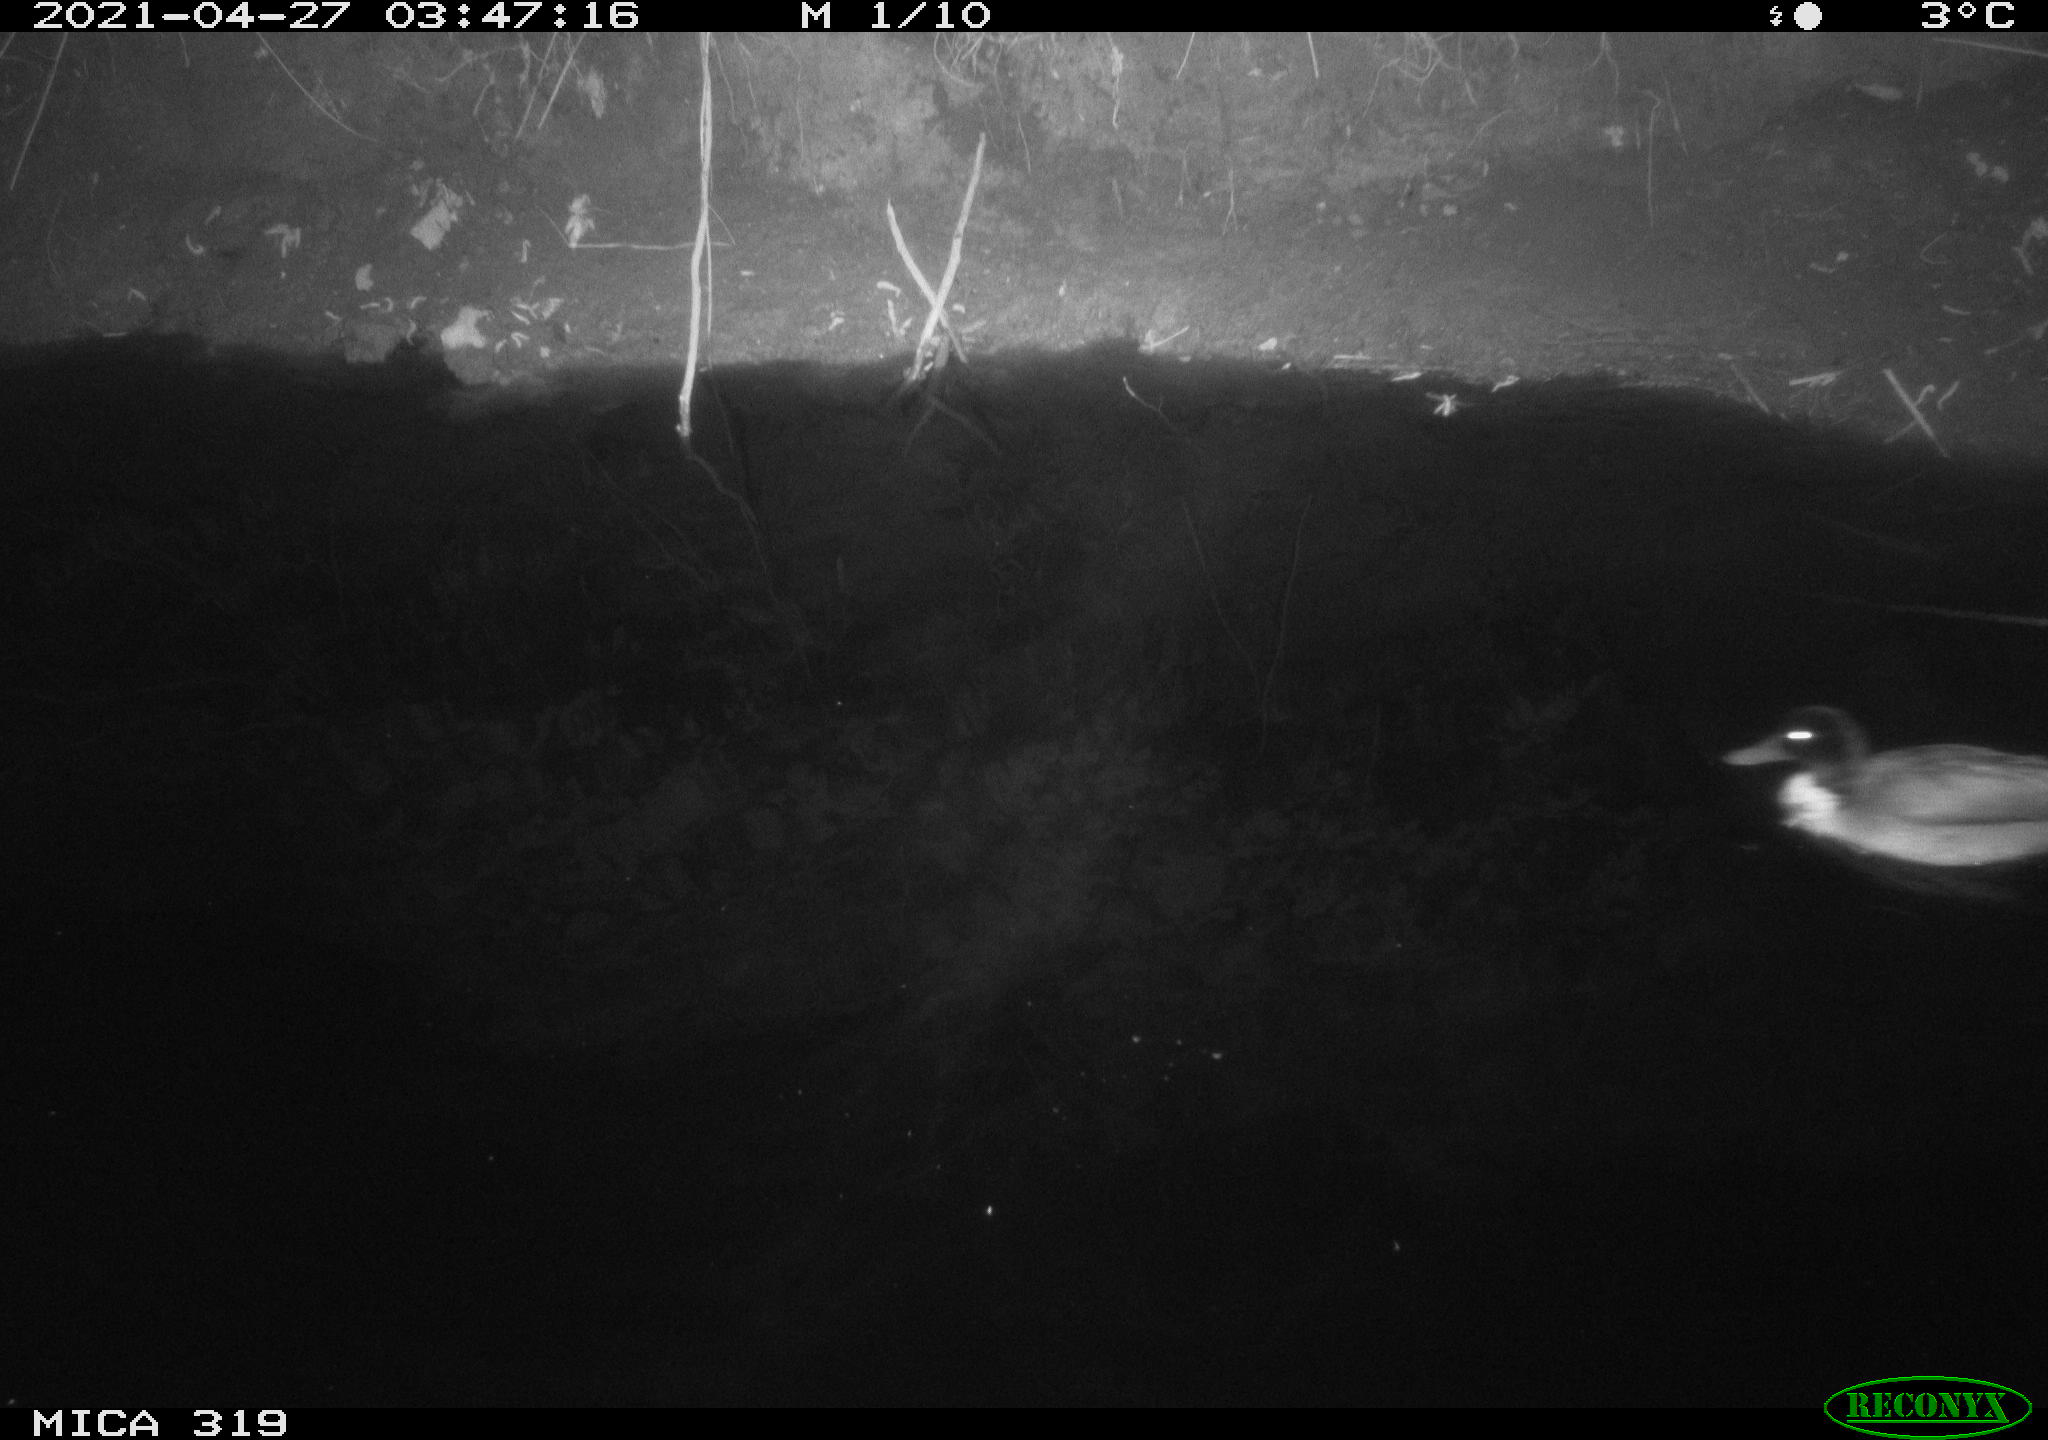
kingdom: Animalia
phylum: Chordata
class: Aves
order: Anseriformes
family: Anatidae
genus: Anas
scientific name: Anas platyrhynchos
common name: Mallard
